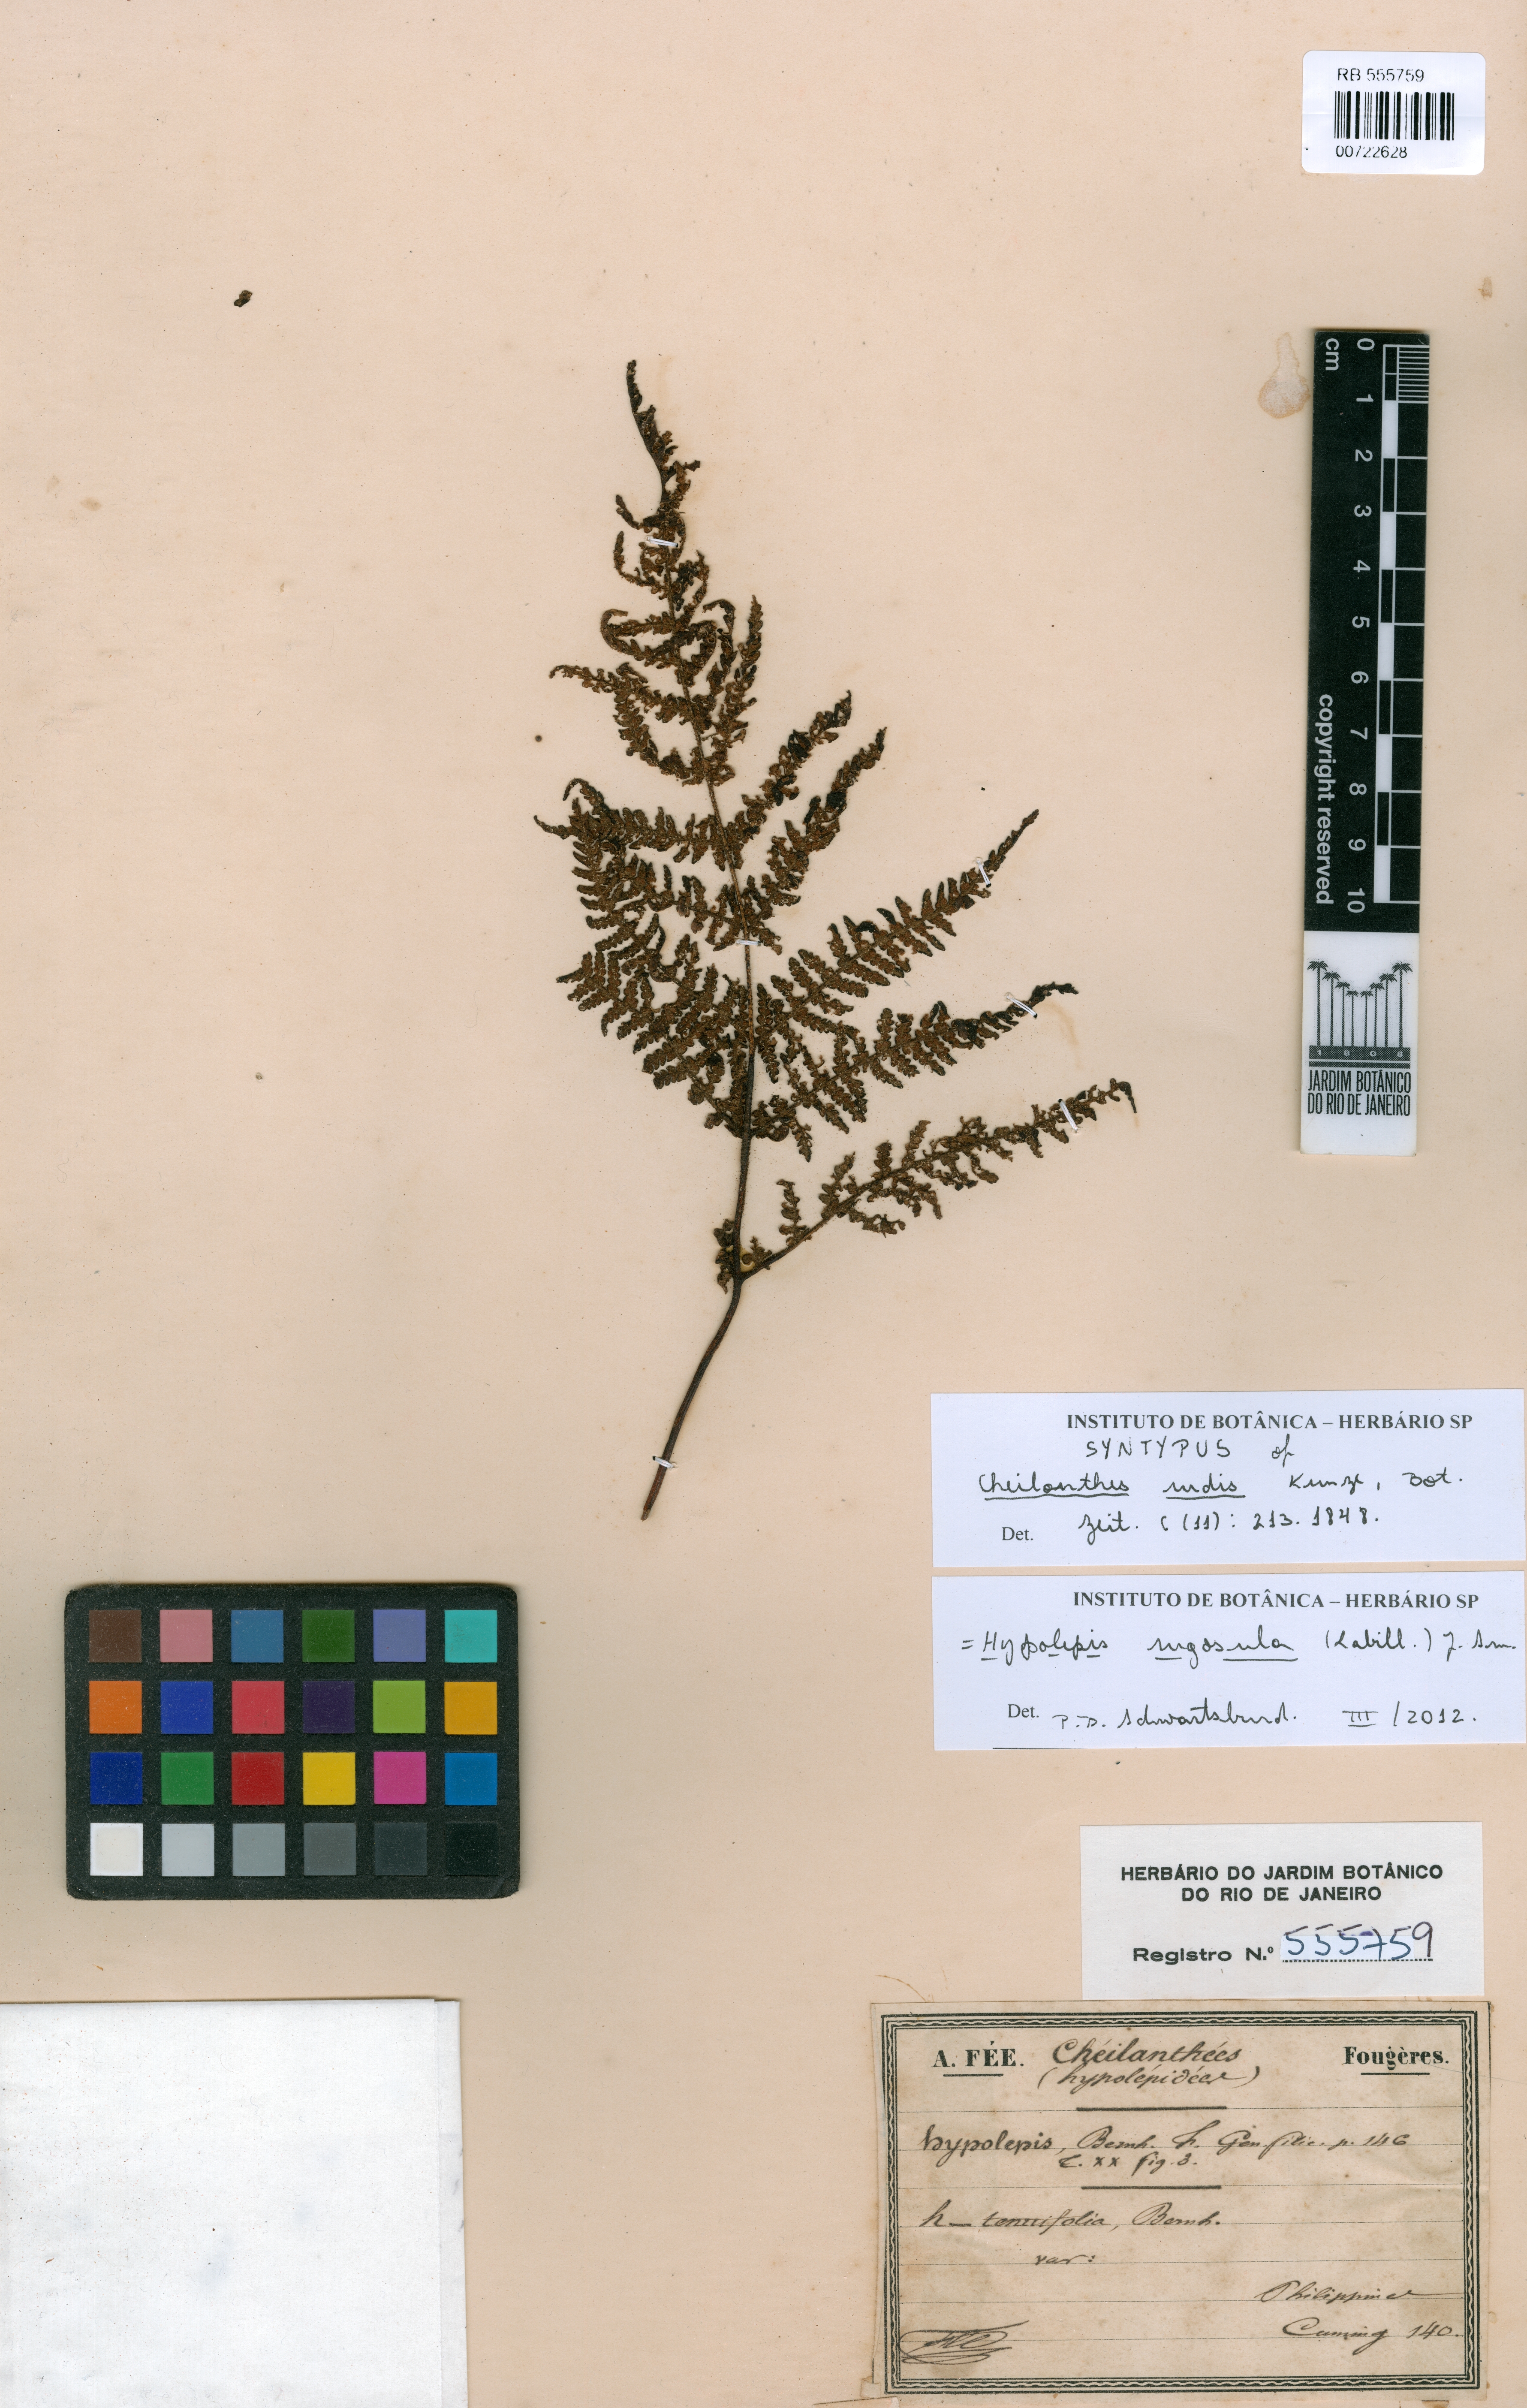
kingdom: Plantae
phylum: Tracheophyta
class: Polypodiopsida
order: Polypodiales
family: Dennstaedtiaceae
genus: Hypolepis
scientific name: Hypolepis rugosula
